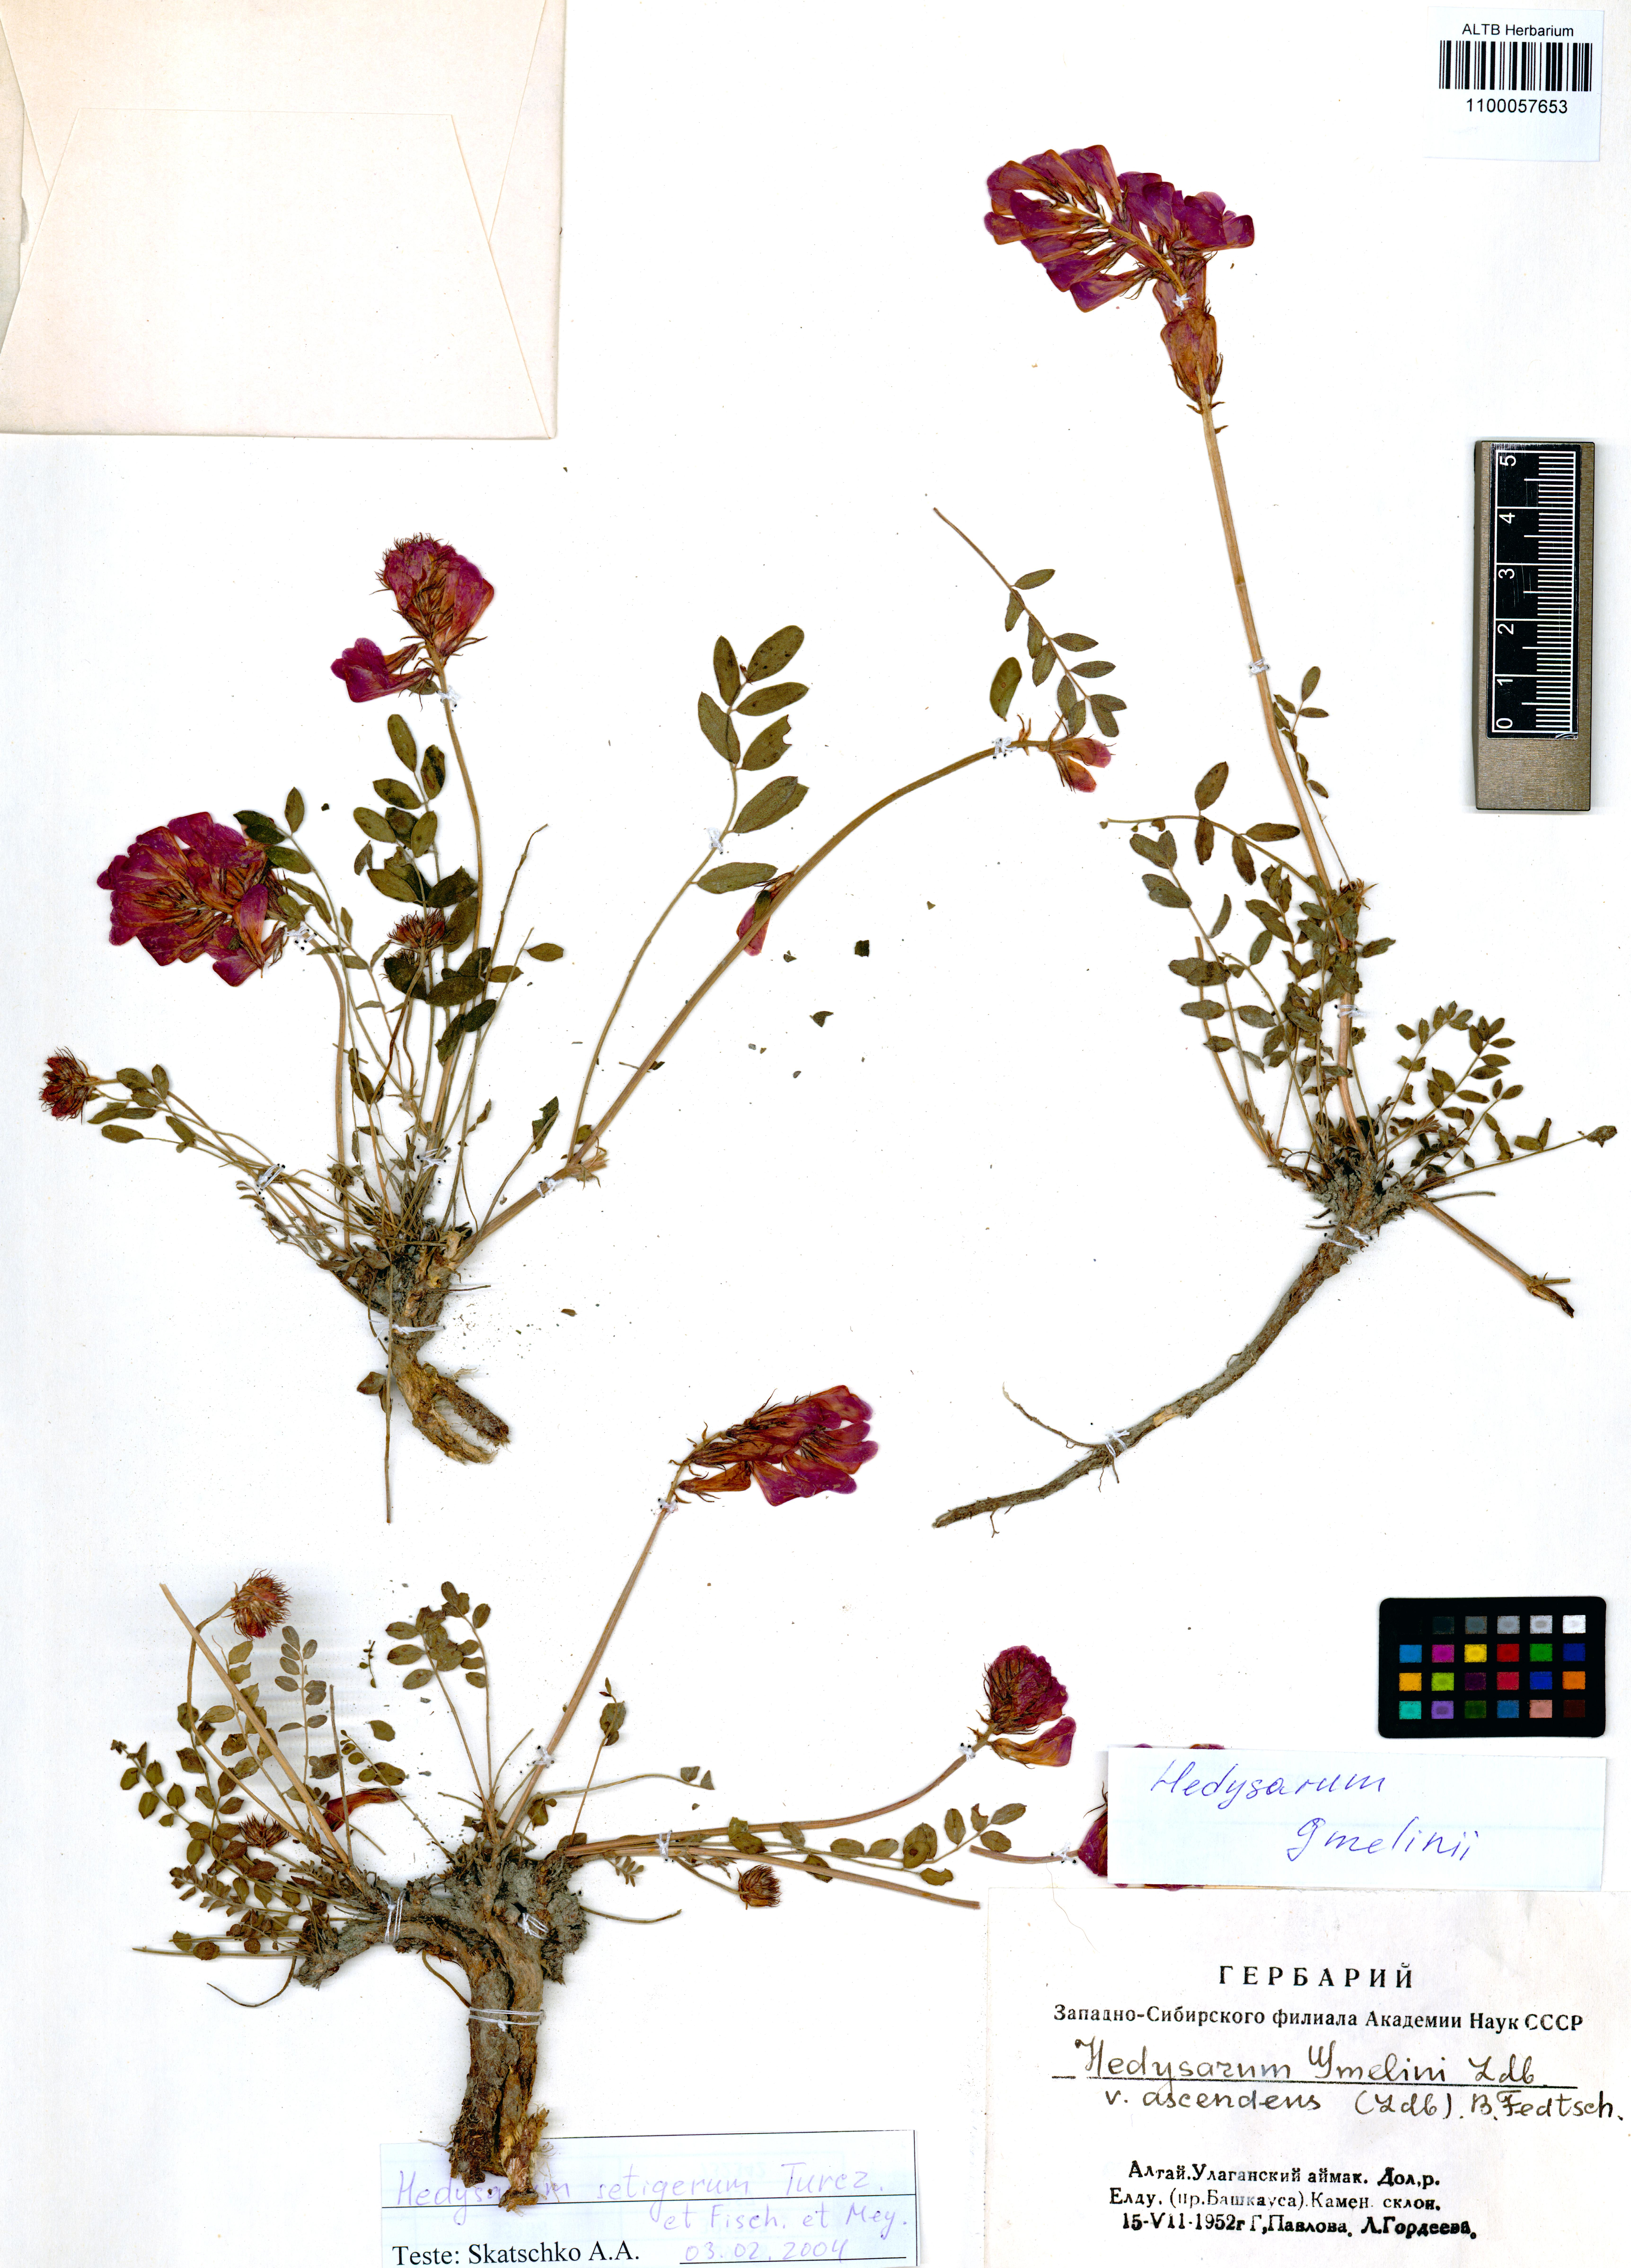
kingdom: Plantae
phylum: Tracheophyta
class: Magnoliopsida
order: Fabales
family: Fabaceae
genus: Hedysarum
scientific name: Hedysarum gmelinii
